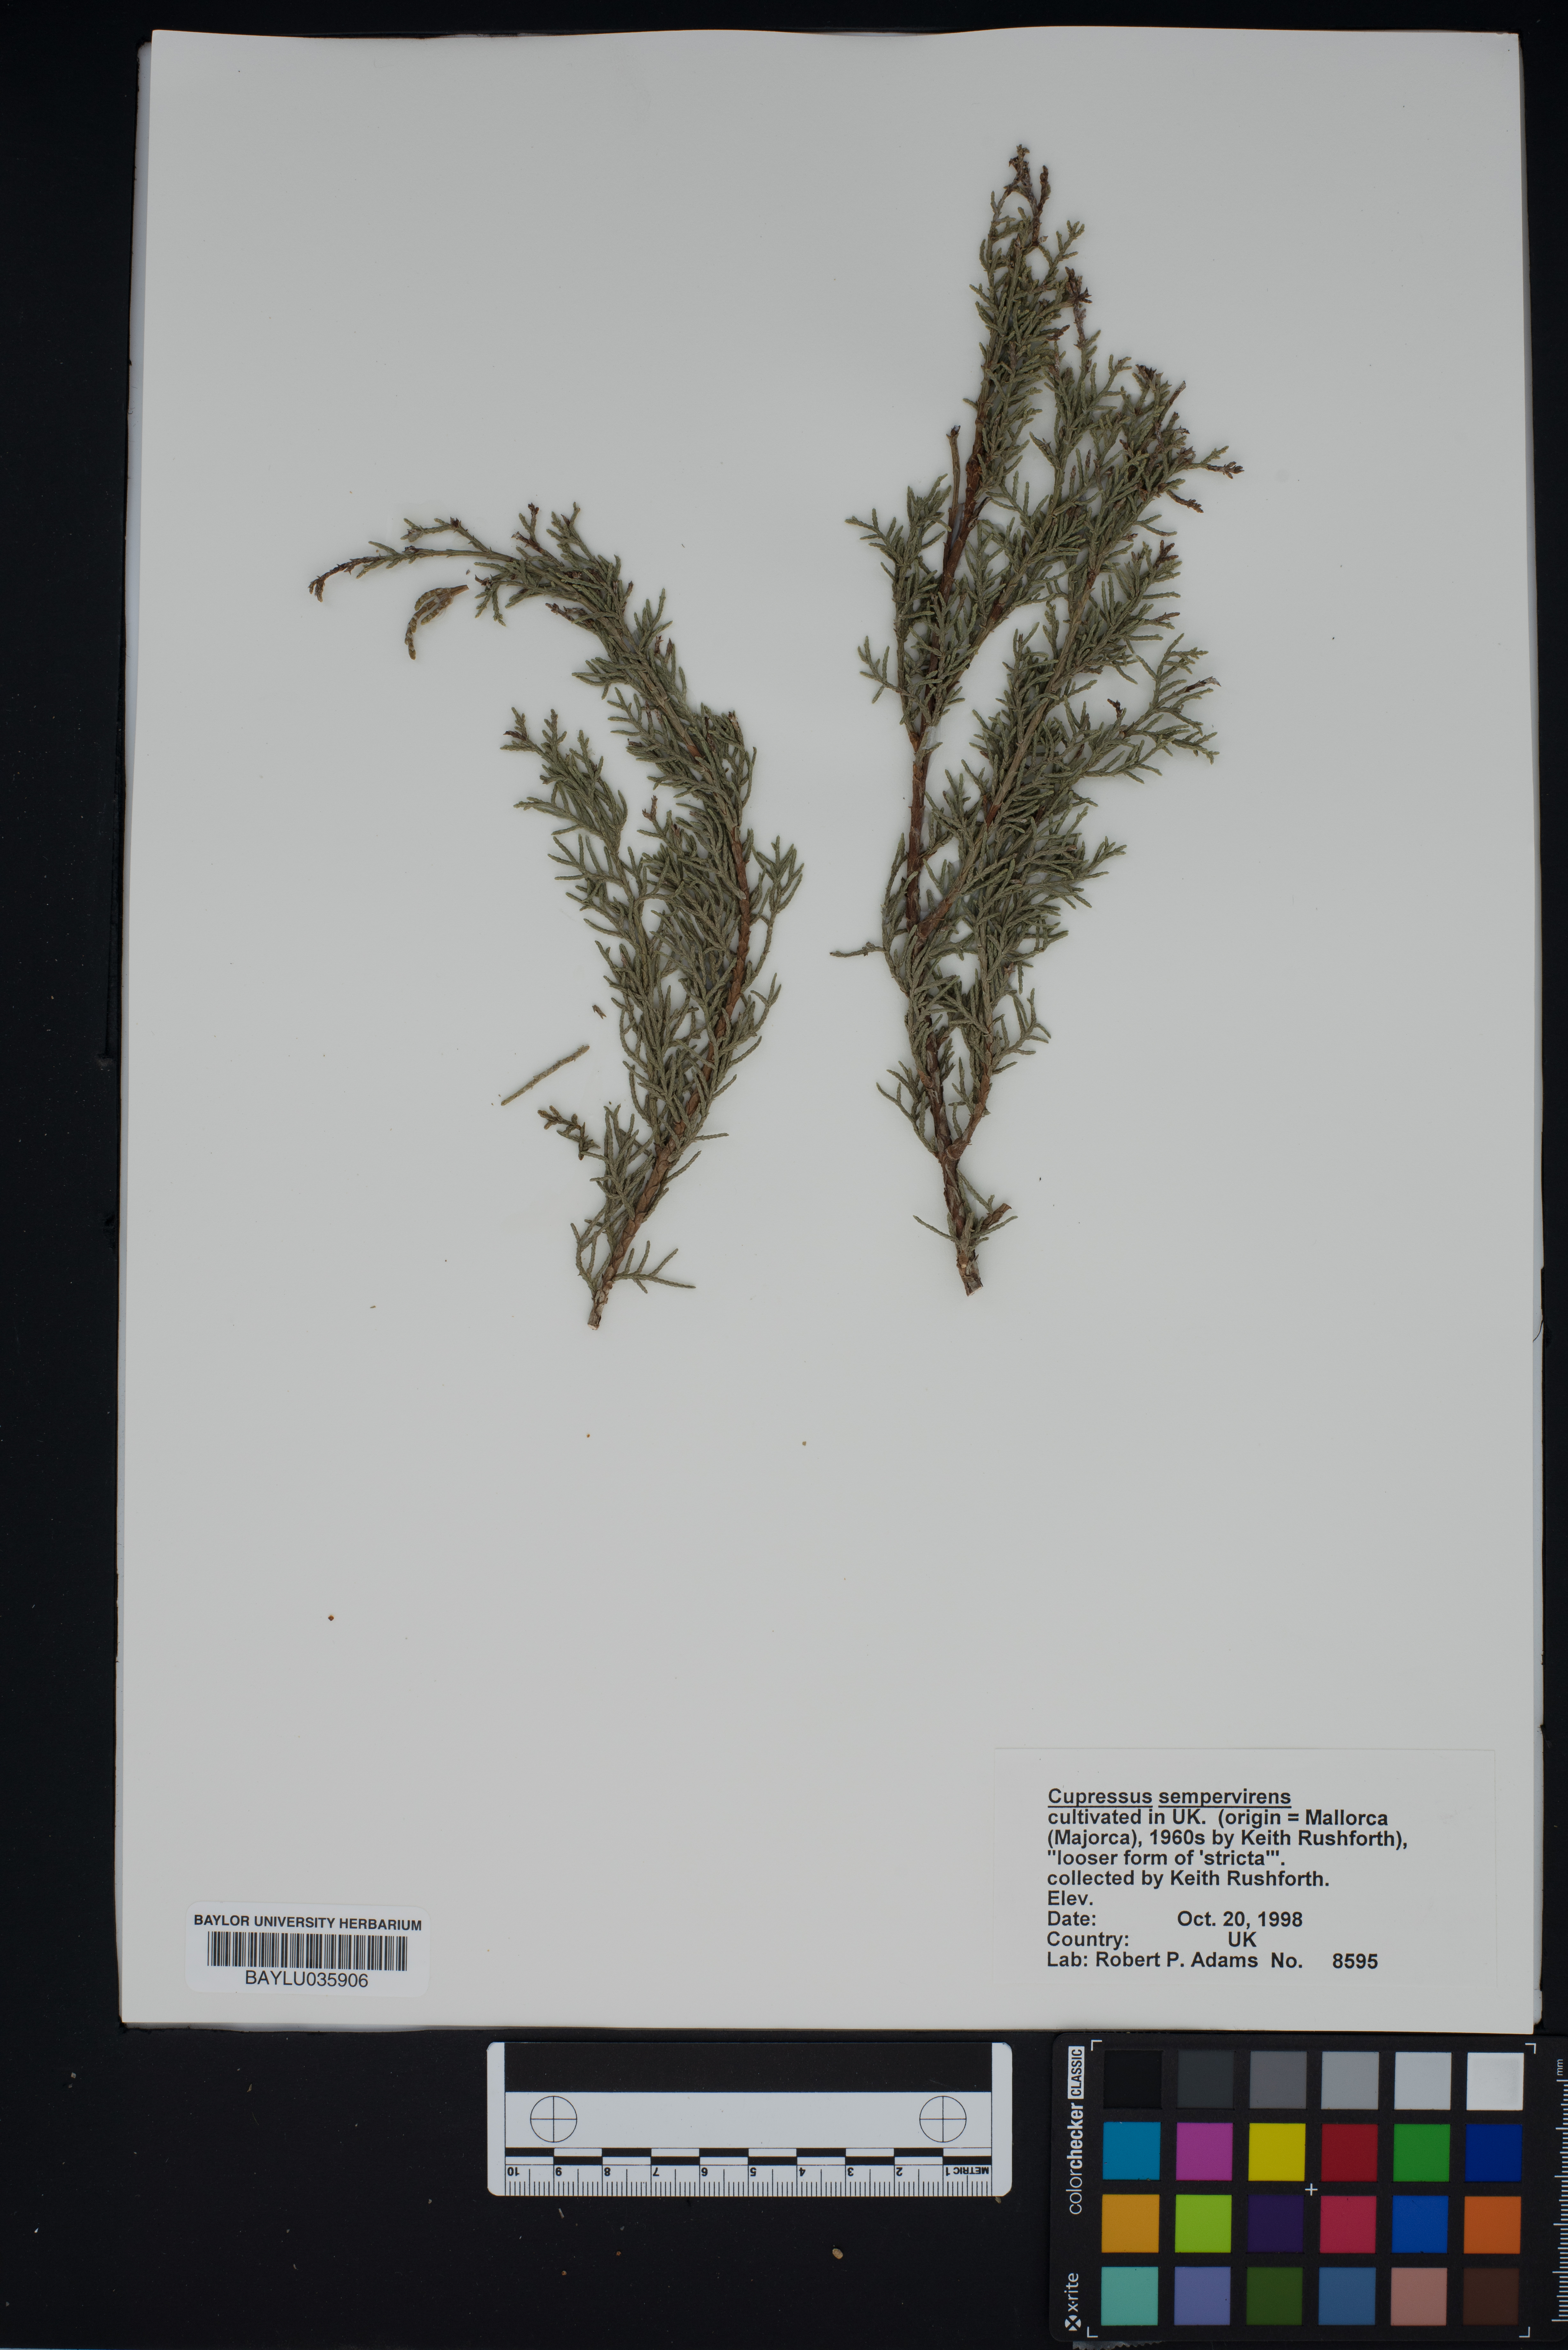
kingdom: Plantae
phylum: Tracheophyta
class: Pinopsida
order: Pinales
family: Cupressaceae
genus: Cupressus
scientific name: Cupressus sempervirens
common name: Italian cypress
